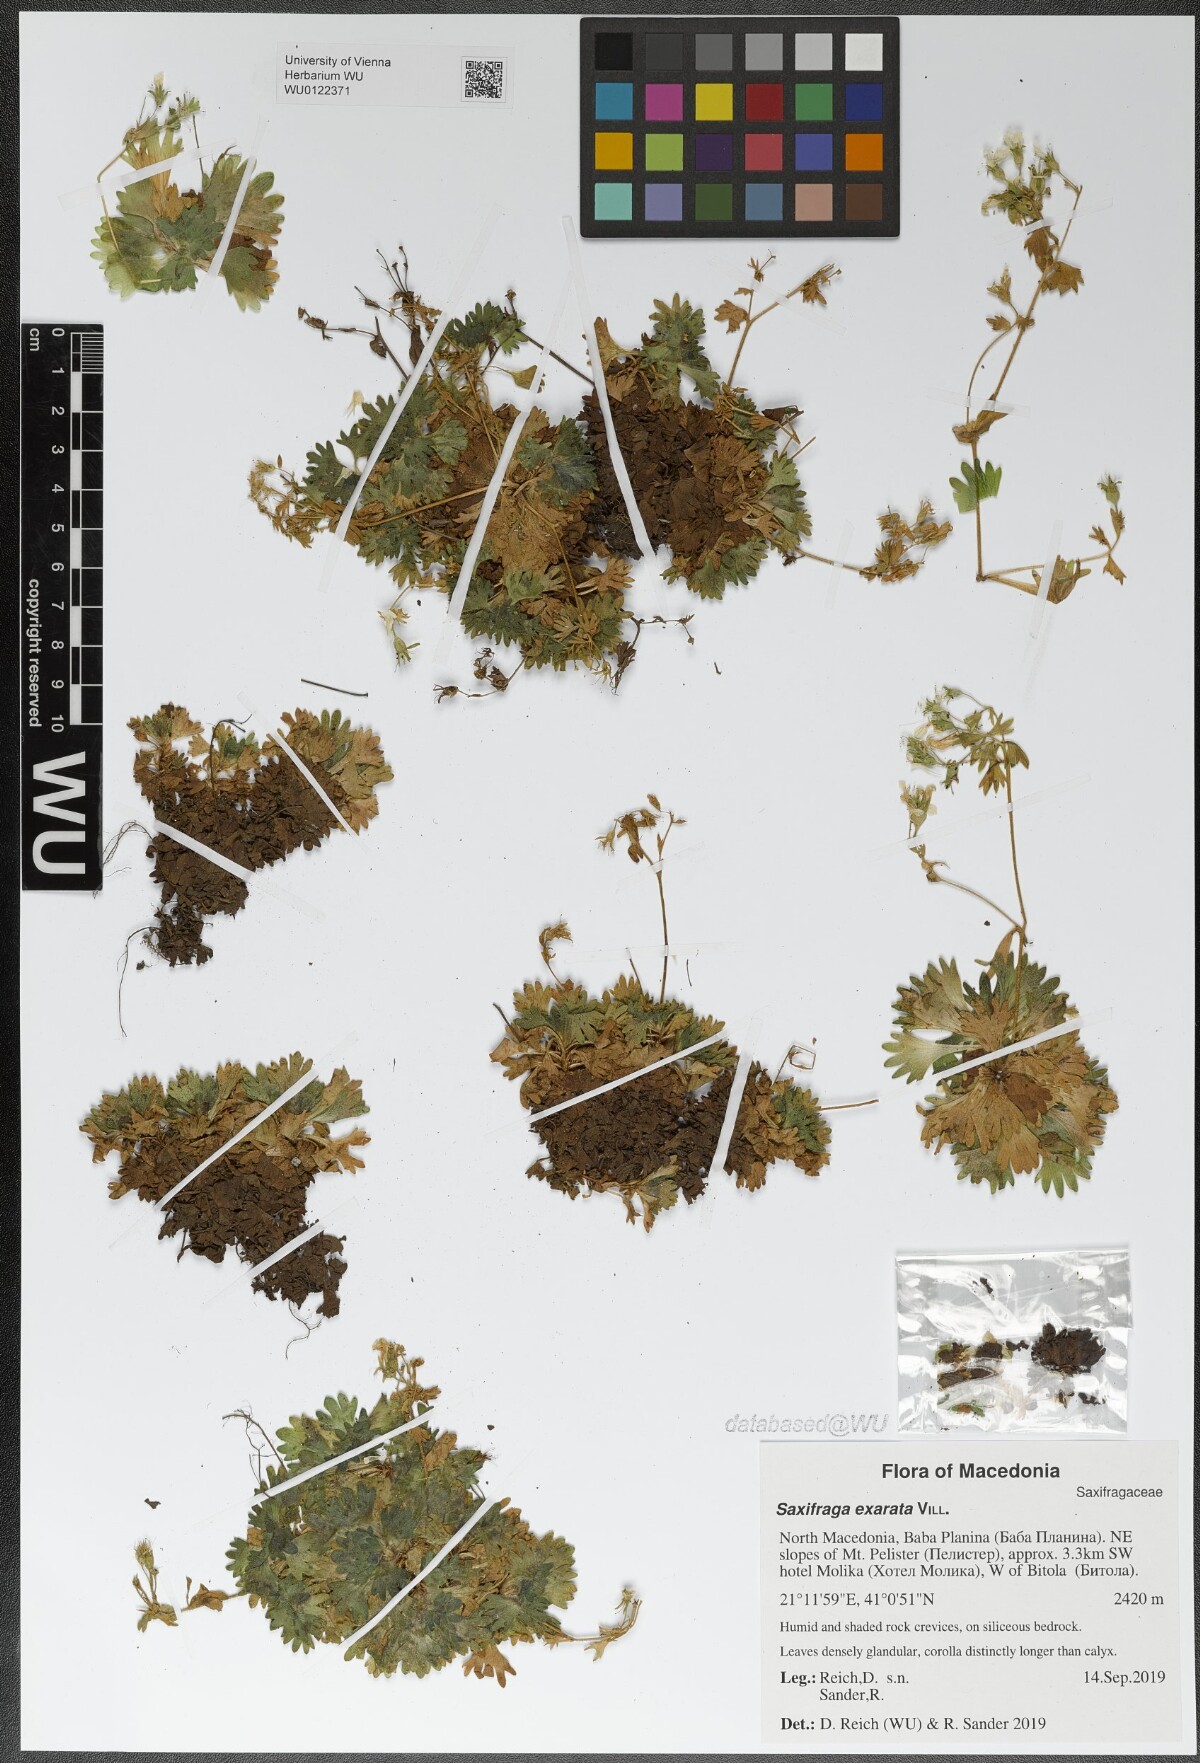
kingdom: Plantae
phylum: Tracheophyta
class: Magnoliopsida
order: Saxifragales
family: Saxifragaceae
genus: Saxifraga
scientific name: Saxifraga exarata
